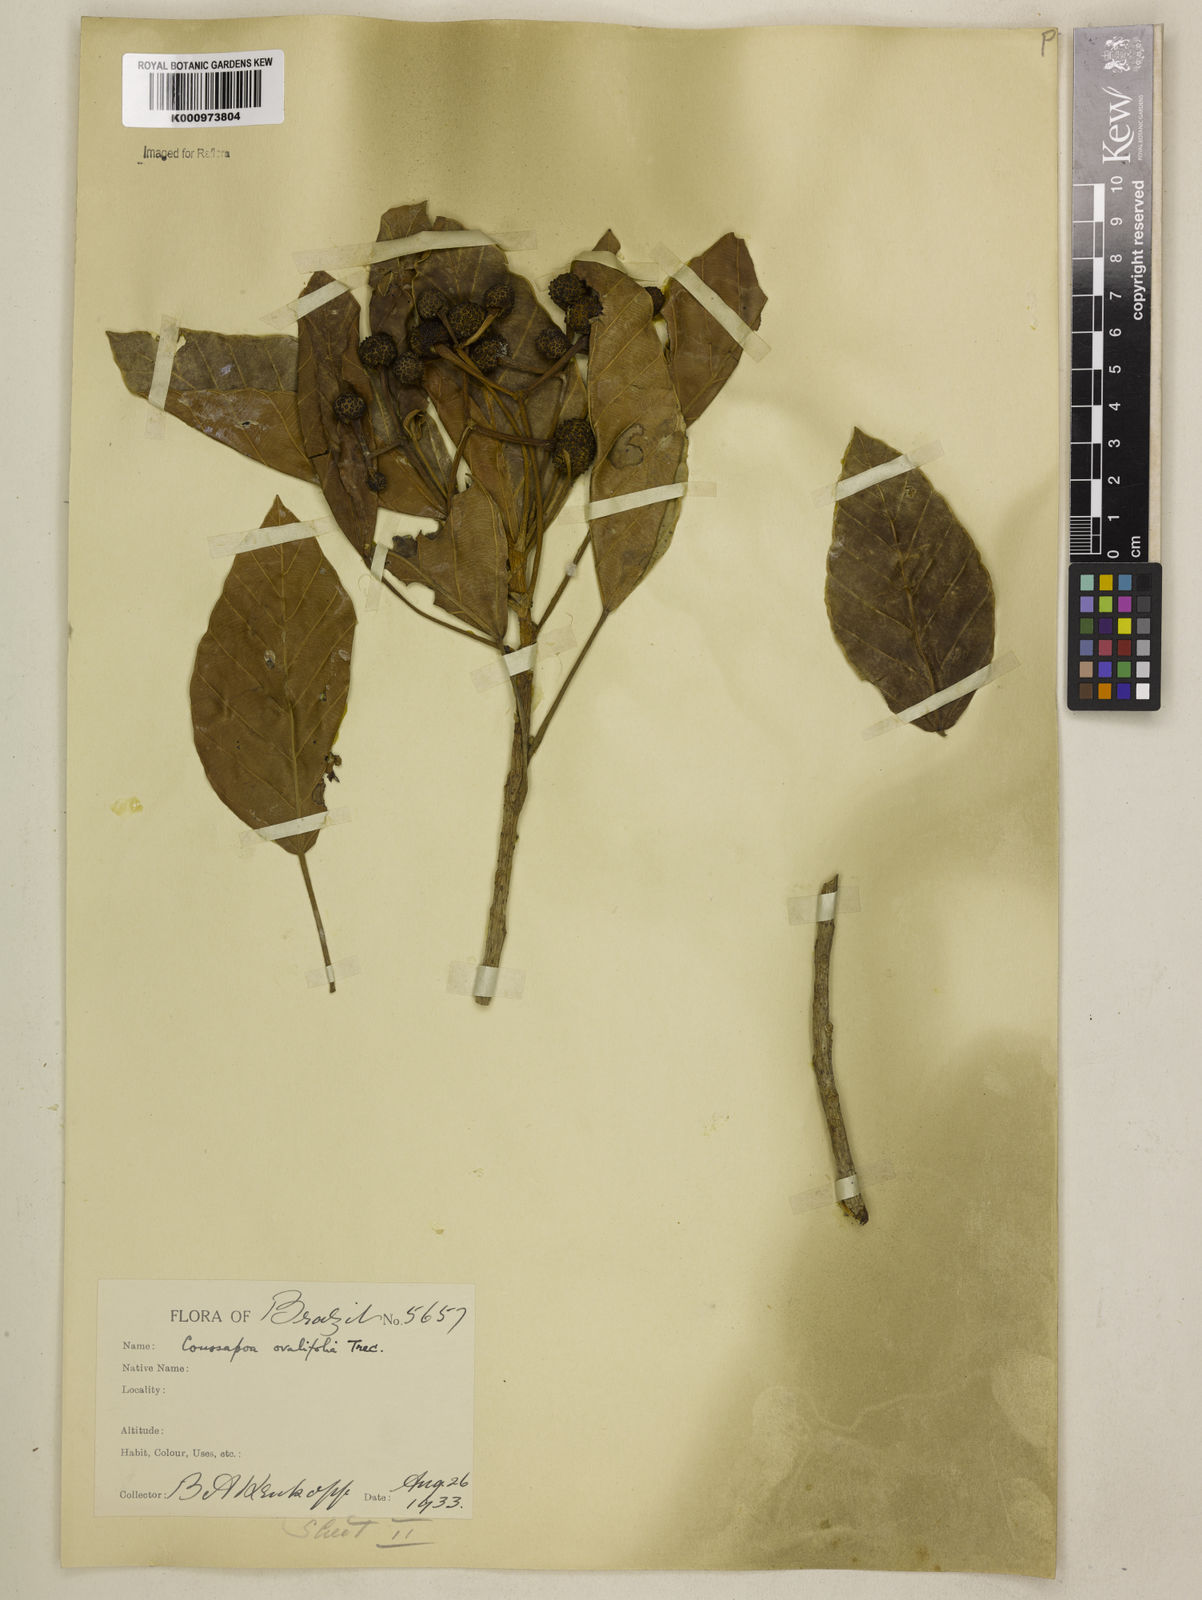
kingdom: Plantae
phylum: Tracheophyta
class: Magnoliopsida
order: Rosales
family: Urticaceae
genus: Coussapoa
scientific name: Coussapoa
